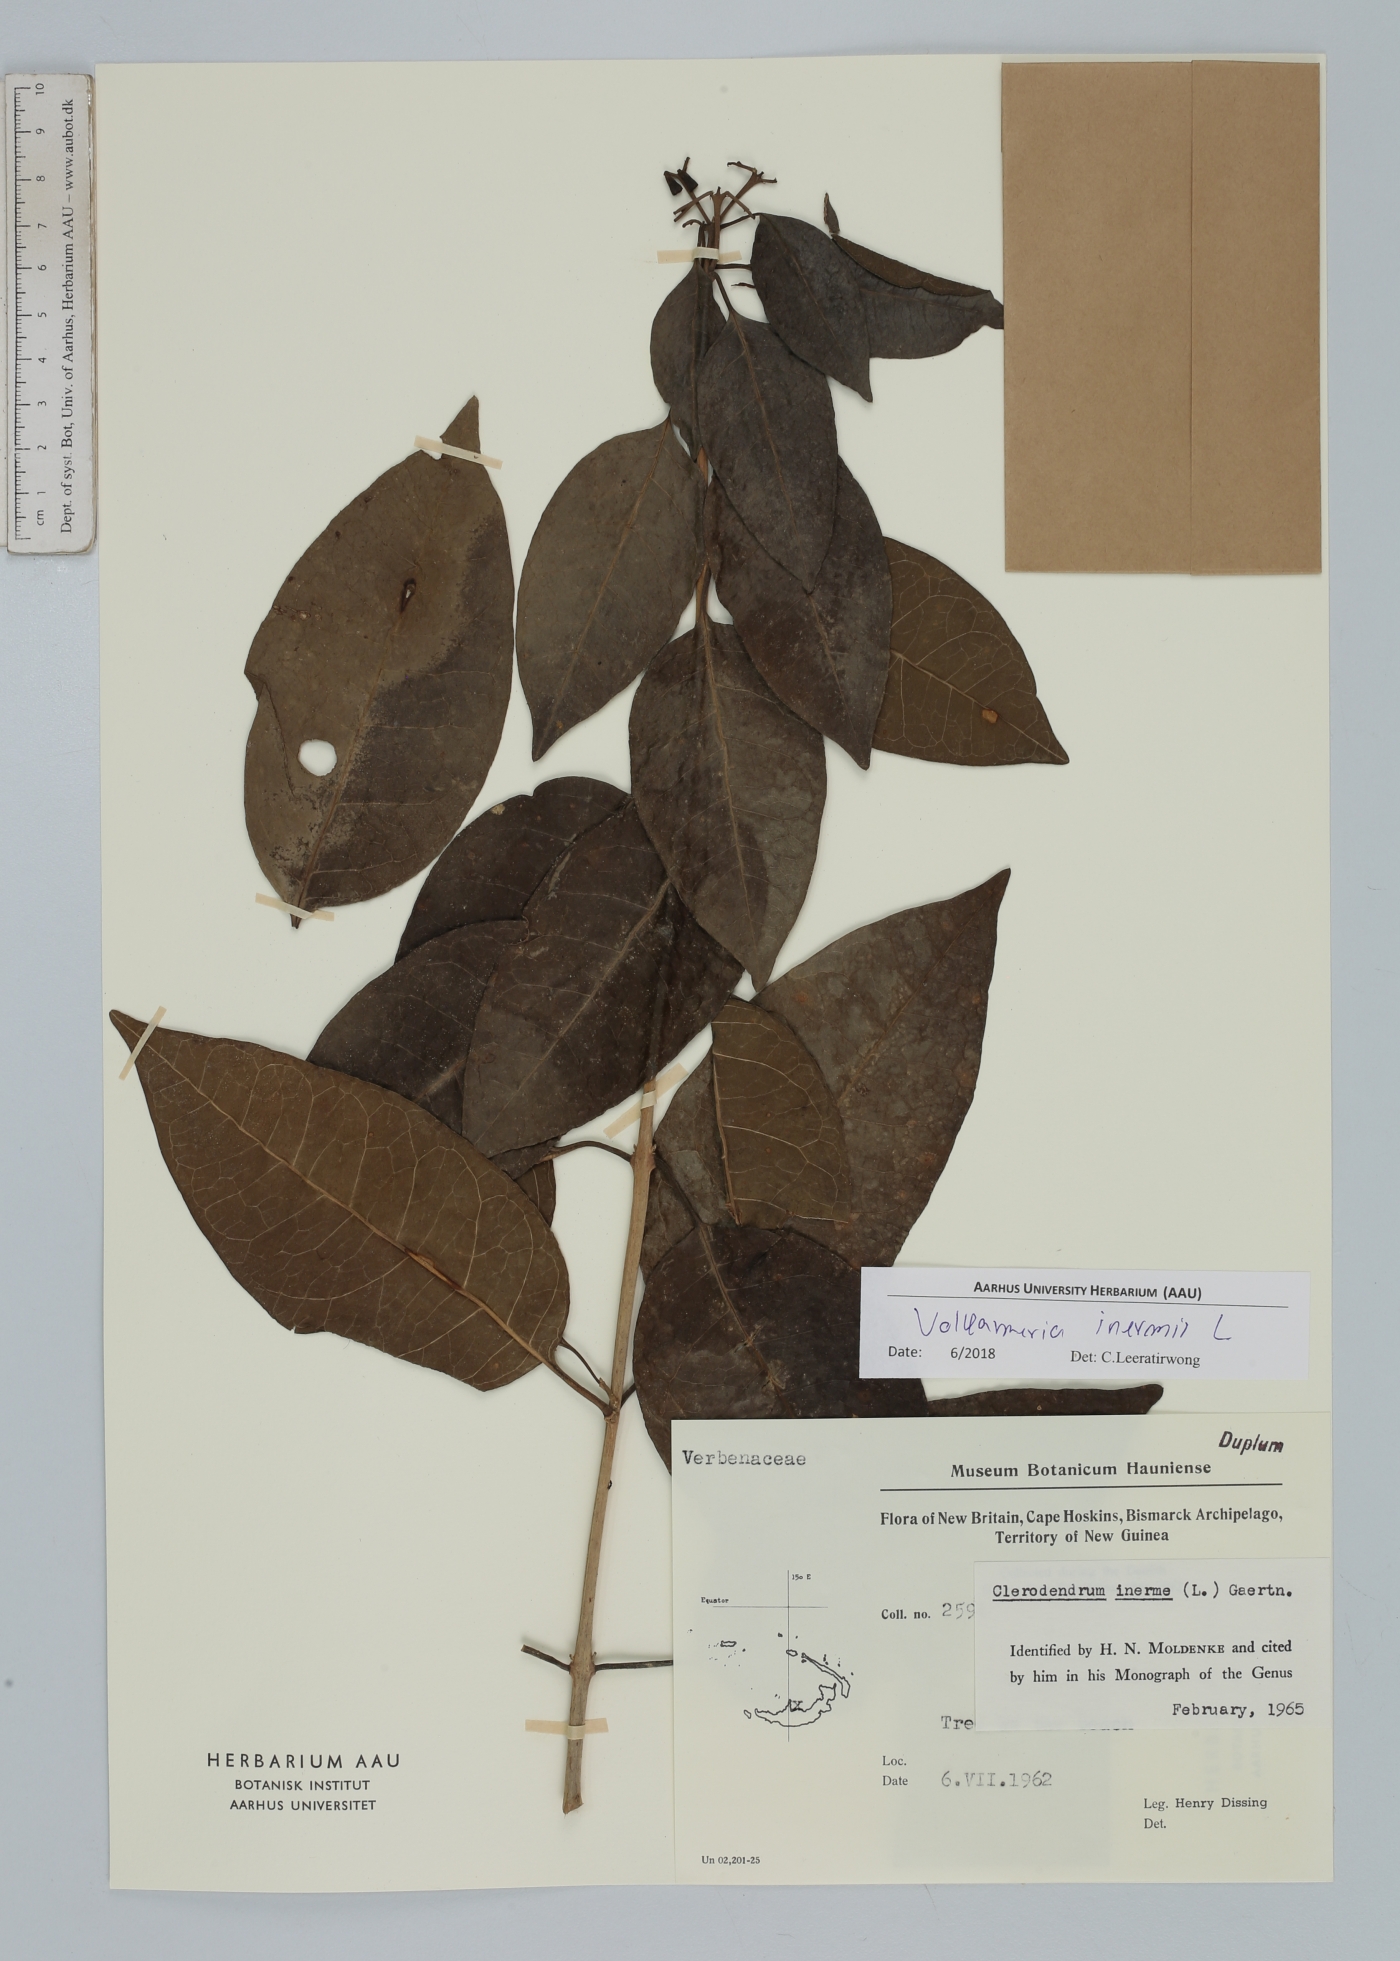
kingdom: Plantae
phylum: Tracheophyta
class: Magnoliopsida
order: Lamiales
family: Lamiaceae
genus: Volkameria
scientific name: Volkameria inermis
